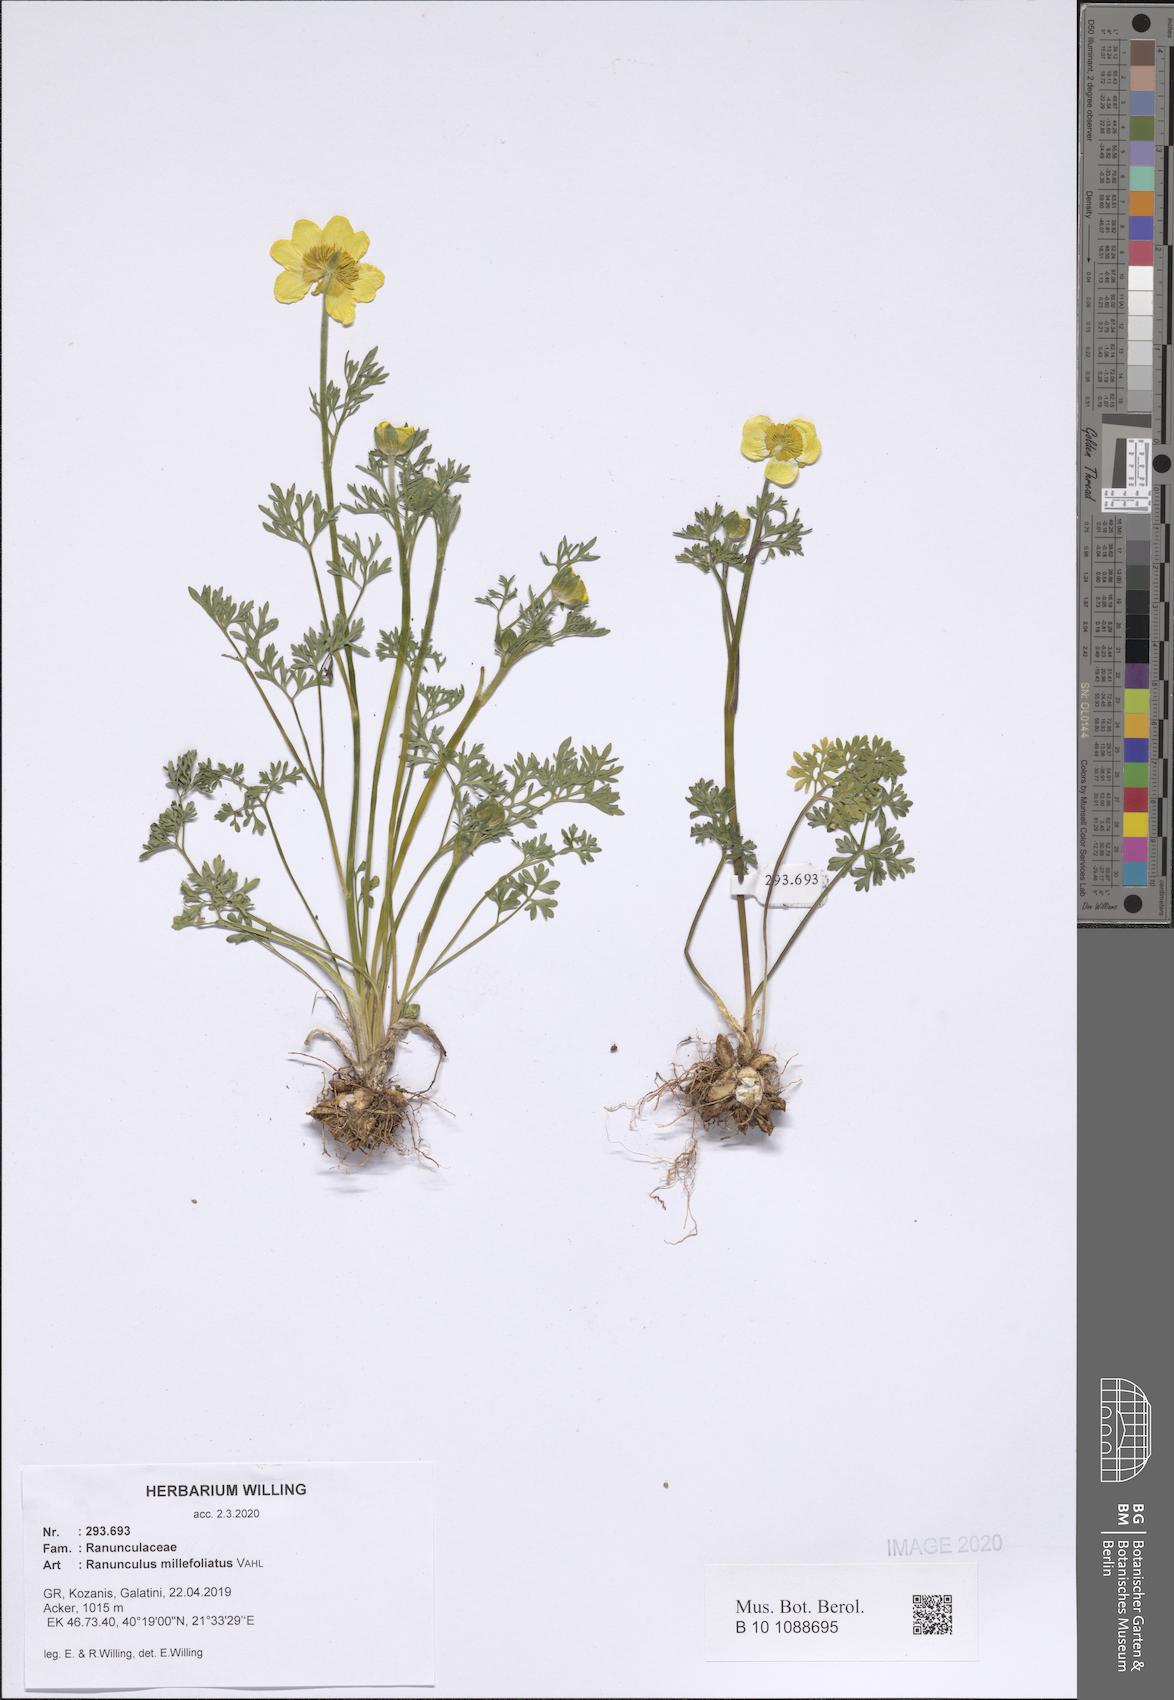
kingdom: Plantae
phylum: Tracheophyta
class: Magnoliopsida
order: Ranunculales
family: Ranunculaceae
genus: Ranunculus
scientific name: Ranunculus millefoliatus
